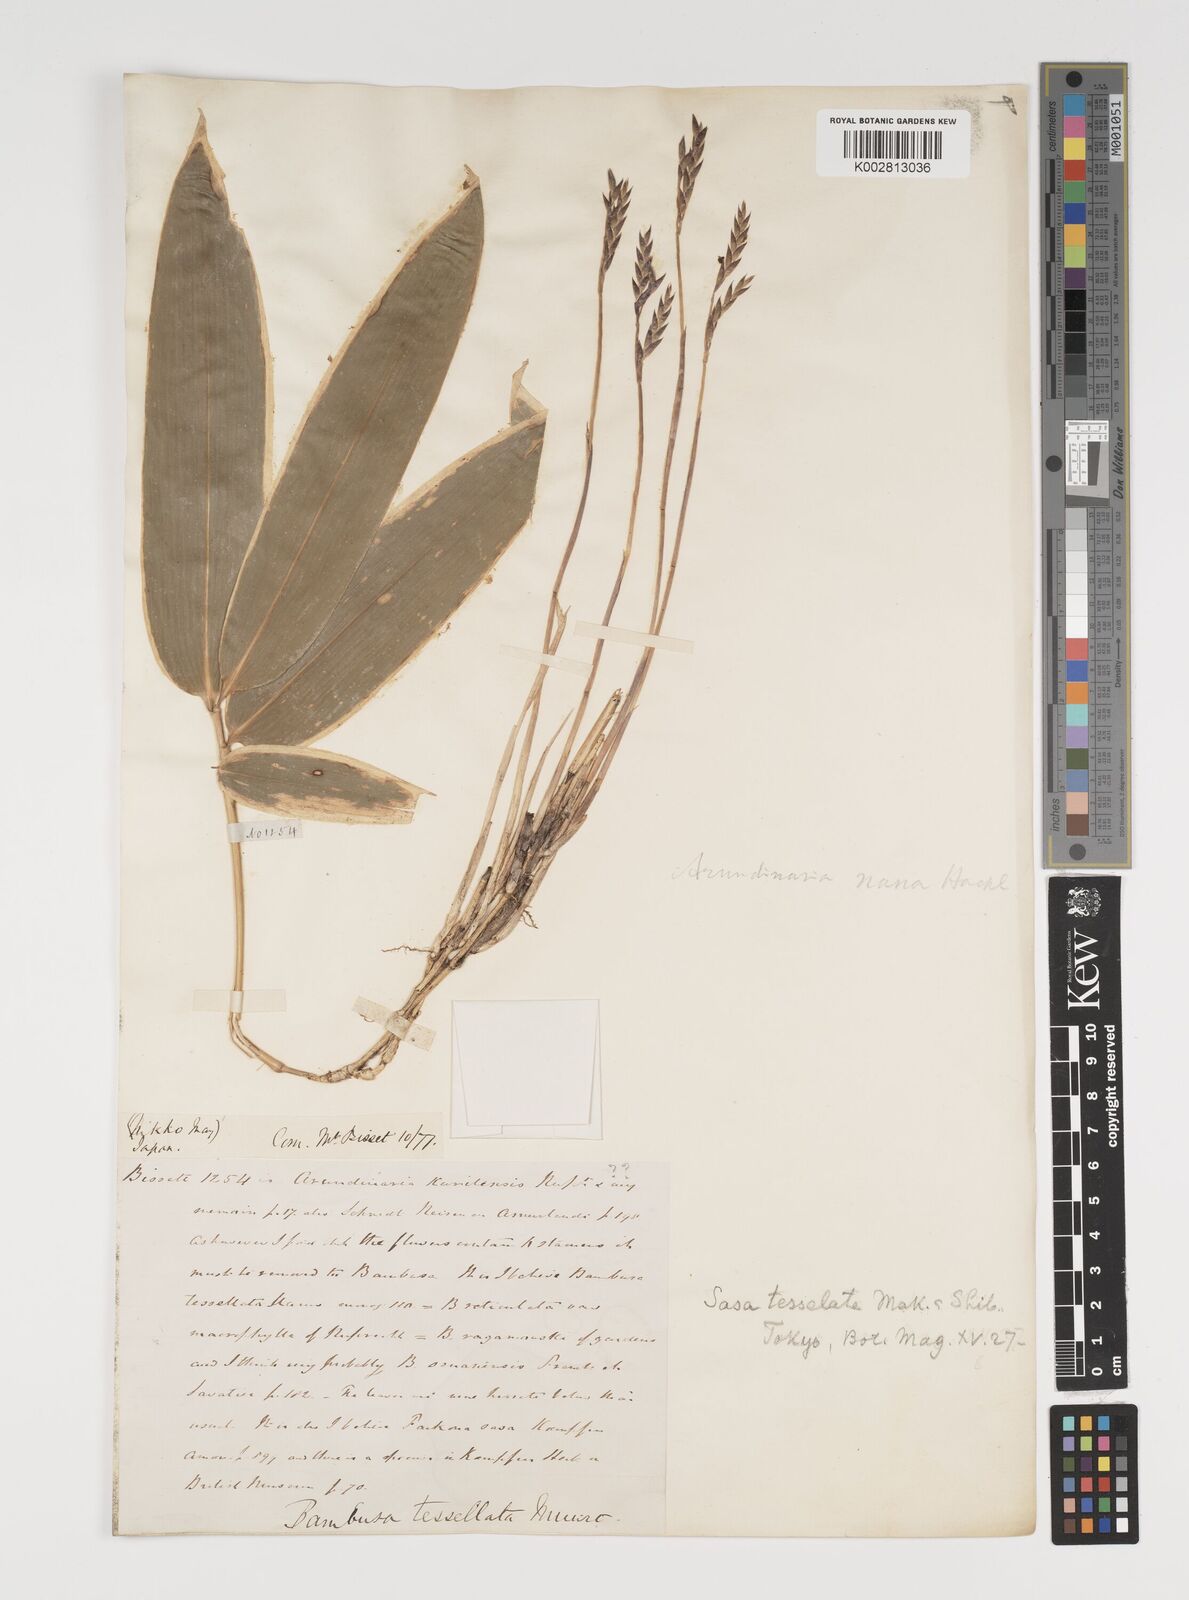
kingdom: Plantae
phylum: Tracheophyta
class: Liliopsida
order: Poales
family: Poaceae
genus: Sasa
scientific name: Sasa chartacea
